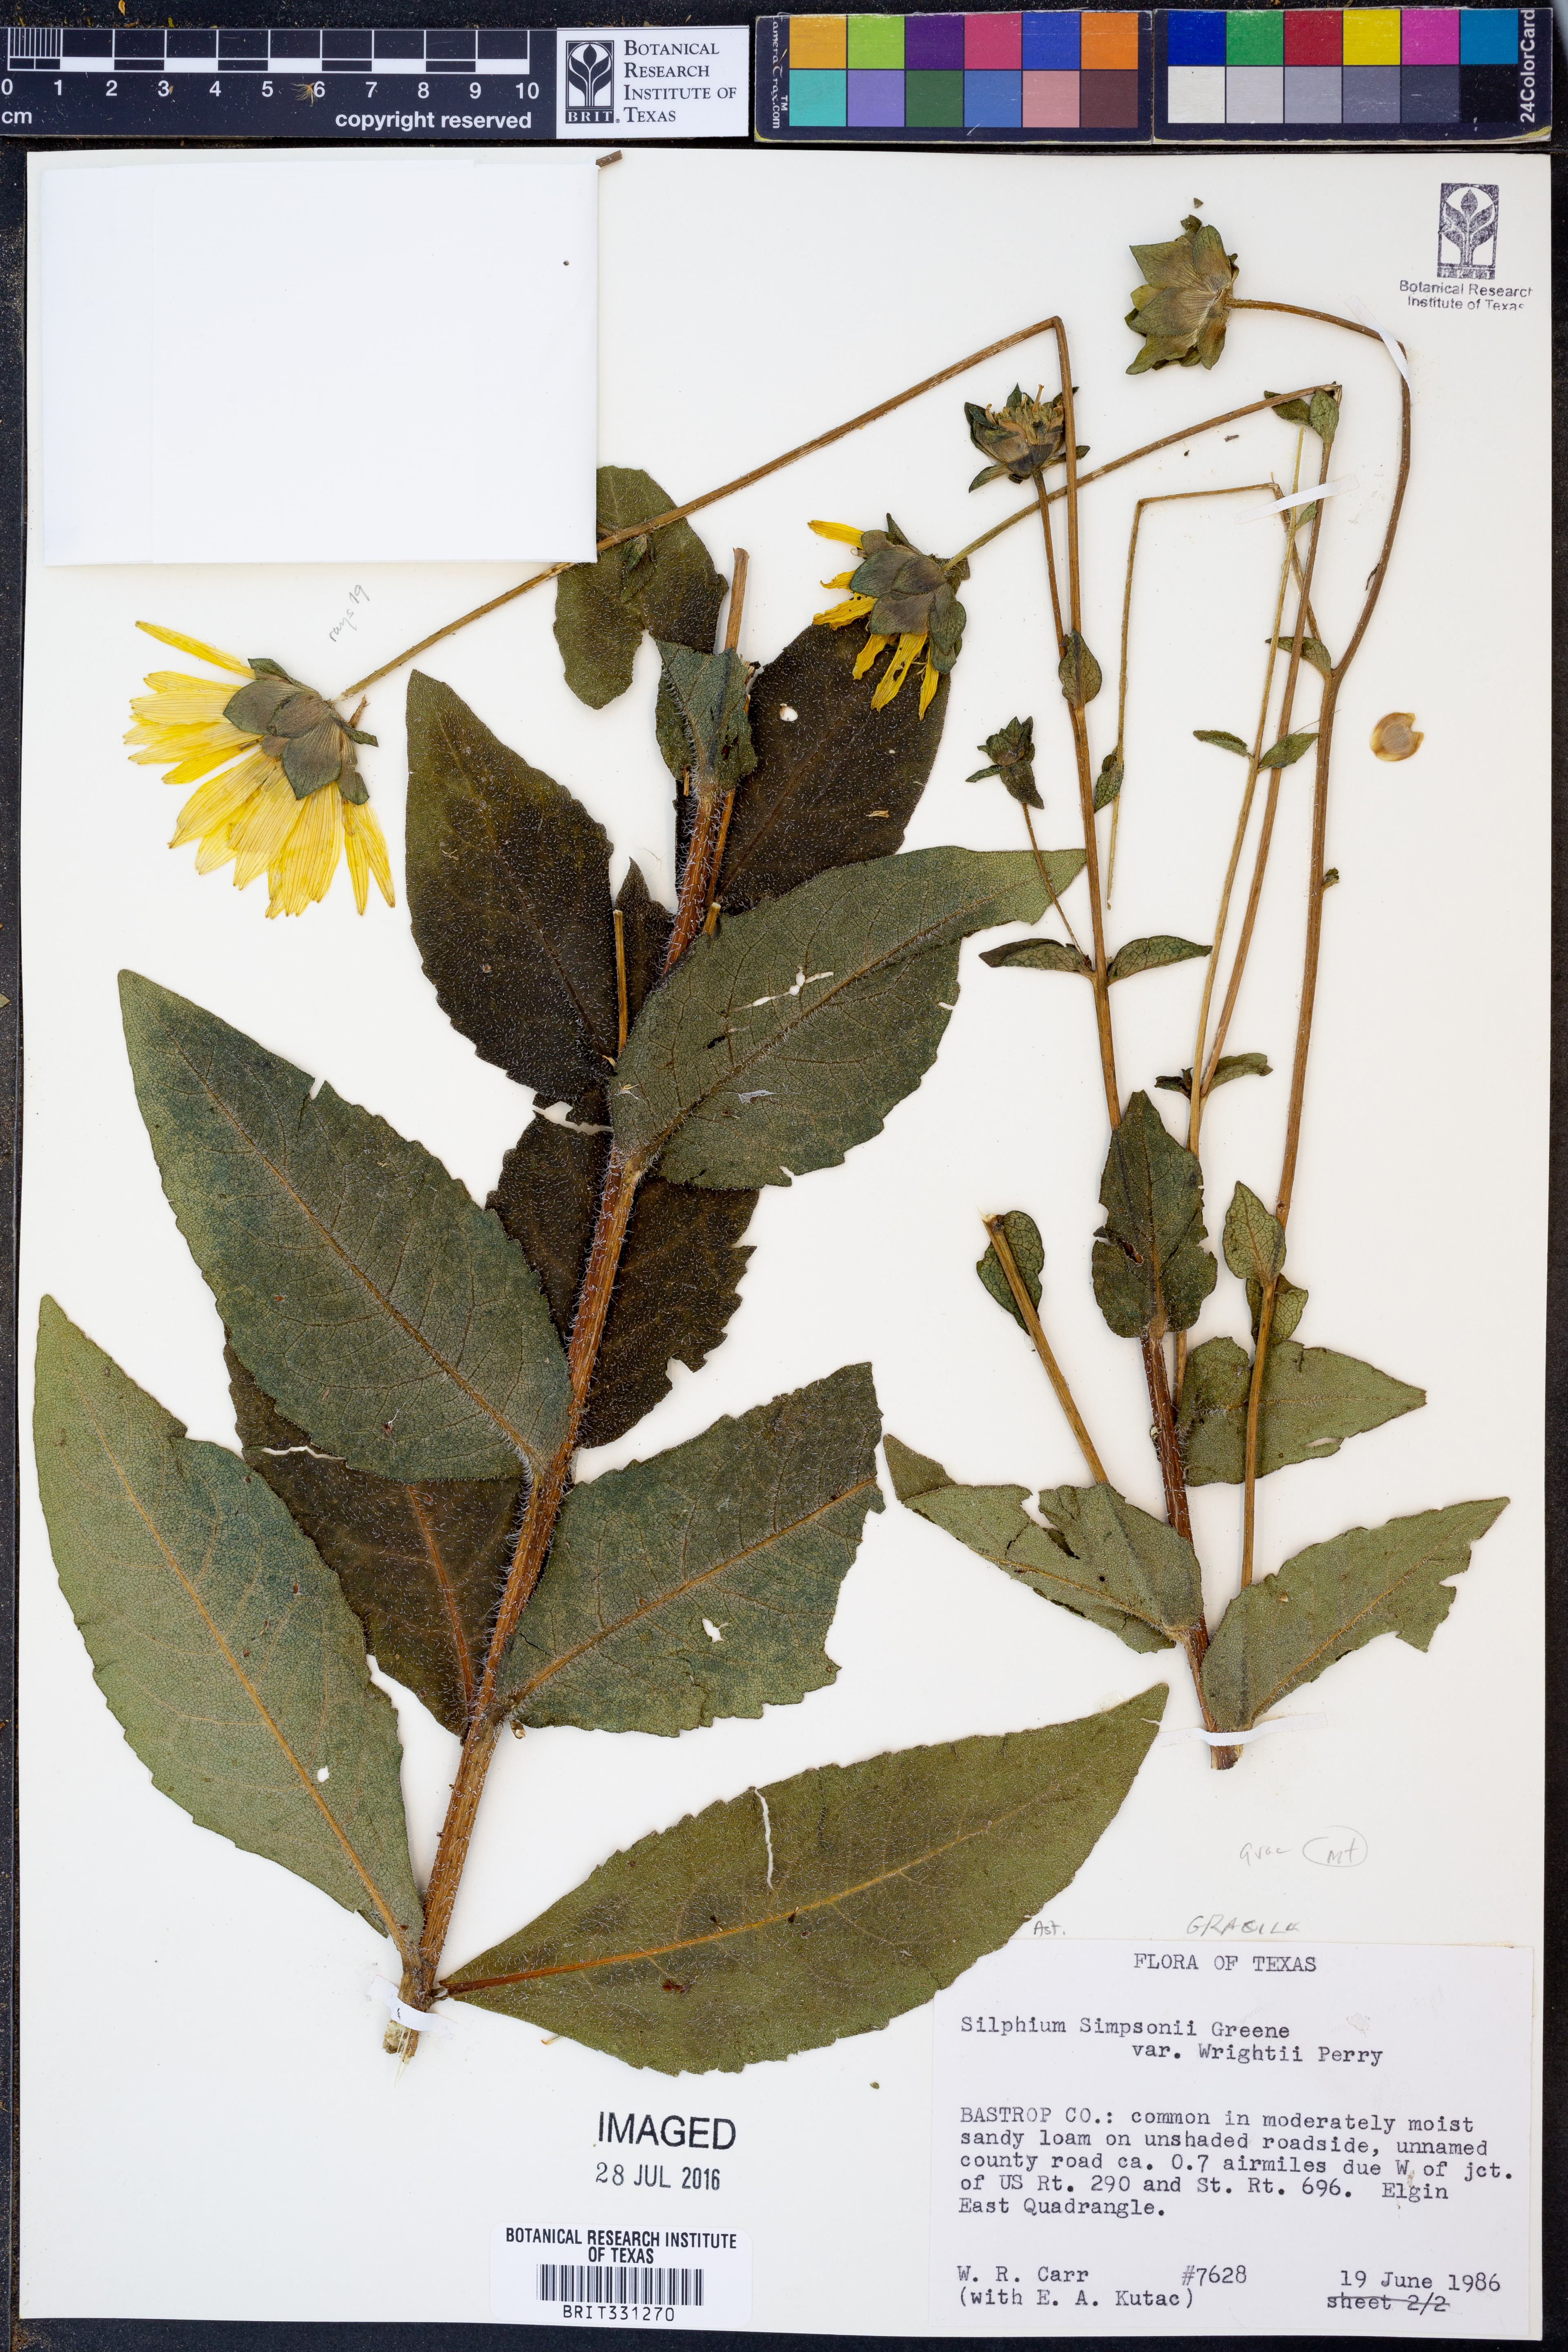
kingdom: Plantae
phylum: Tracheophyta
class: Magnoliopsida
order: Asterales
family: Asteraceae
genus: Silphium
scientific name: Silphium asteriscus
